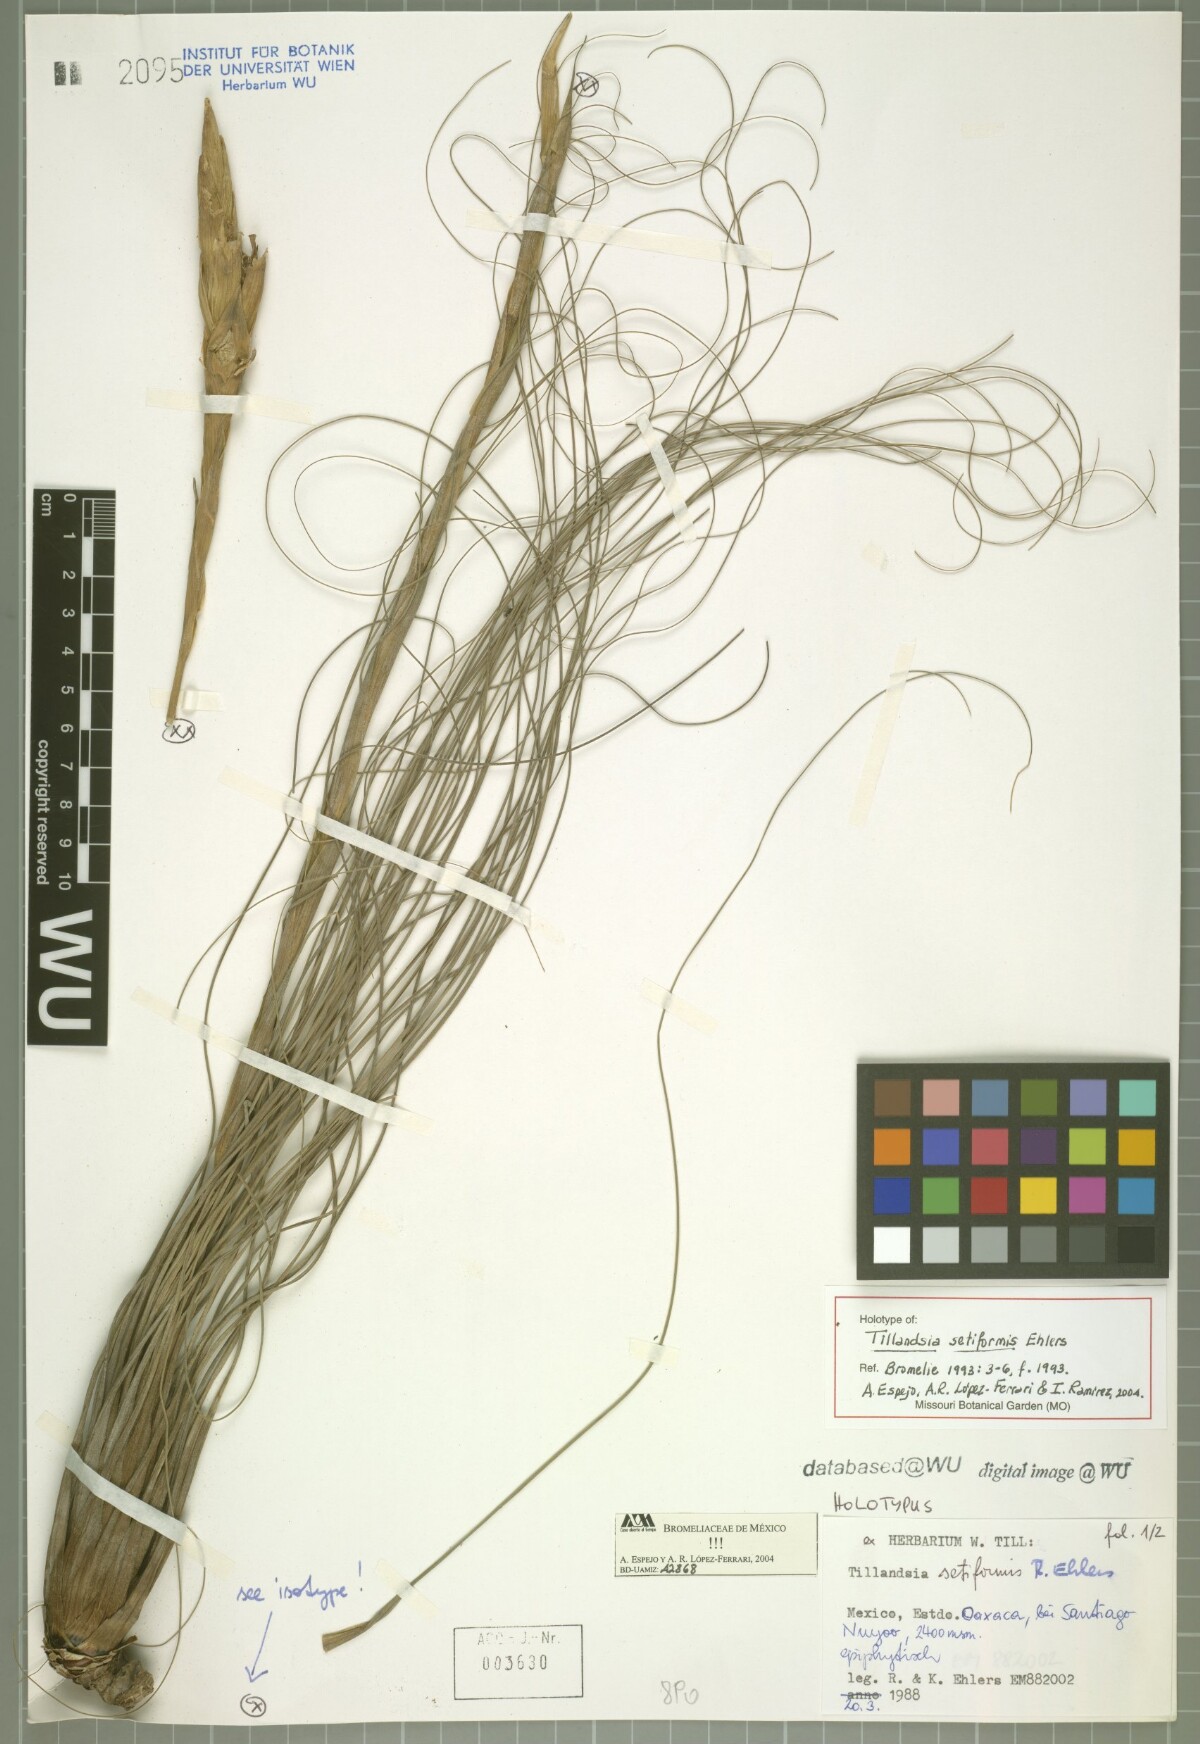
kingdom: Plantae
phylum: Tracheophyta
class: Liliopsida
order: Poales
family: Bromeliaceae
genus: Tillandsia
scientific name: Tillandsia setiformis
